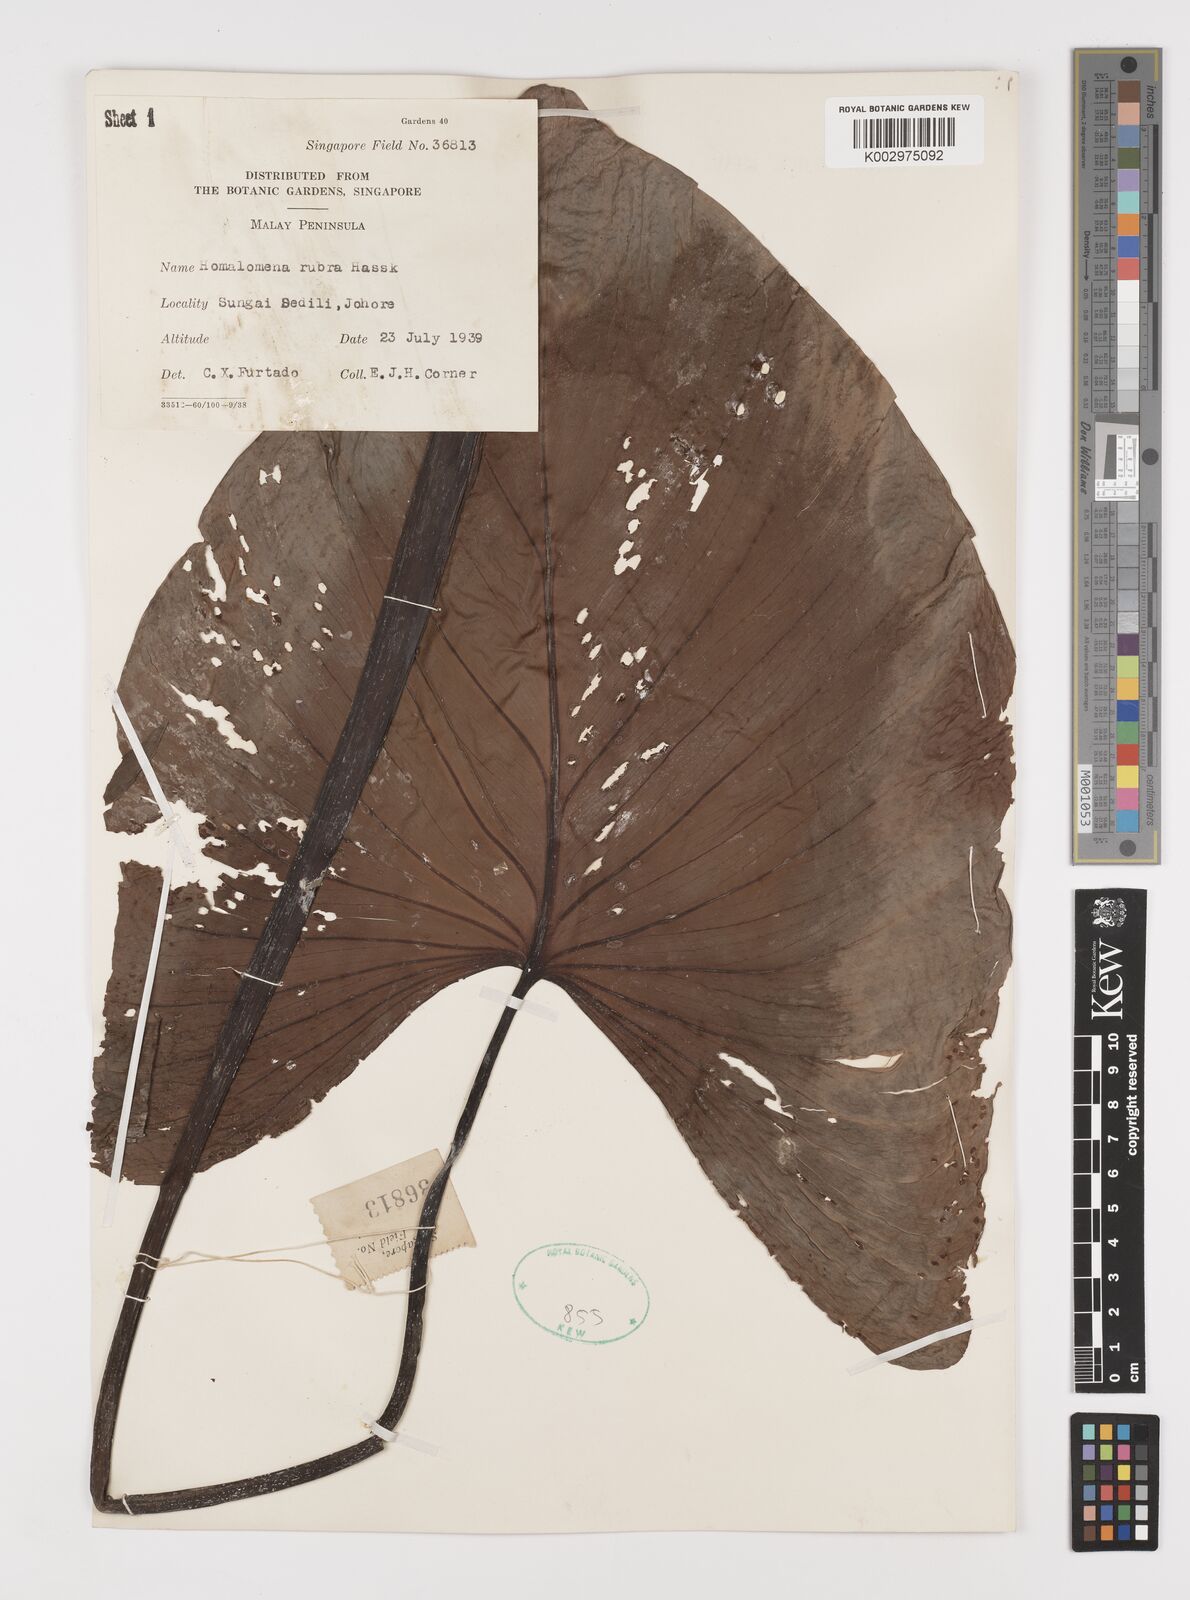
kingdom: Plantae
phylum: Tracheophyta
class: Liliopsida
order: Alismatales
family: Araceae
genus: Homalomena
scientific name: Homalomena pendula
